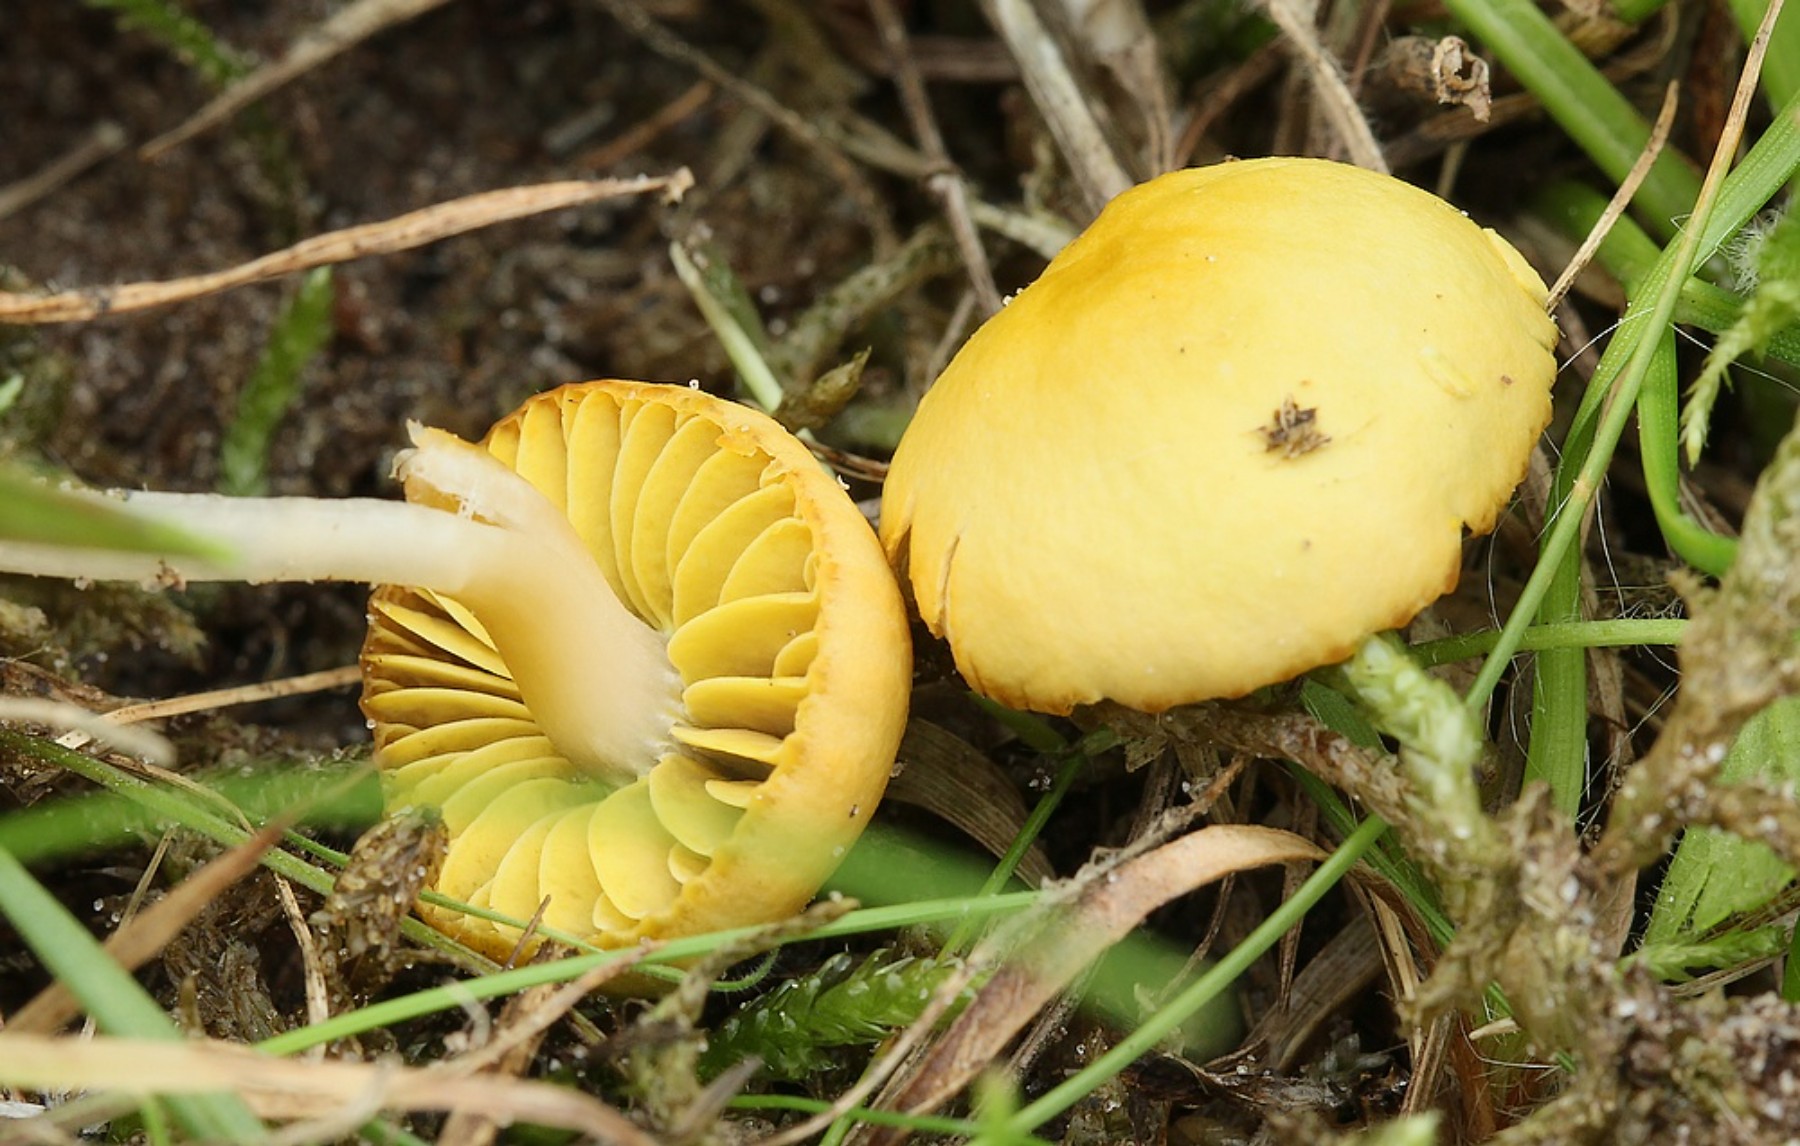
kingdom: Fungi
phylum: Basidiomycota
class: Agaricomycetes
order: Agaricales
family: Hygrophoraceae
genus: Gliophorus
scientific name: Gliophorus psittacinus
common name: papegøje-vokshat
